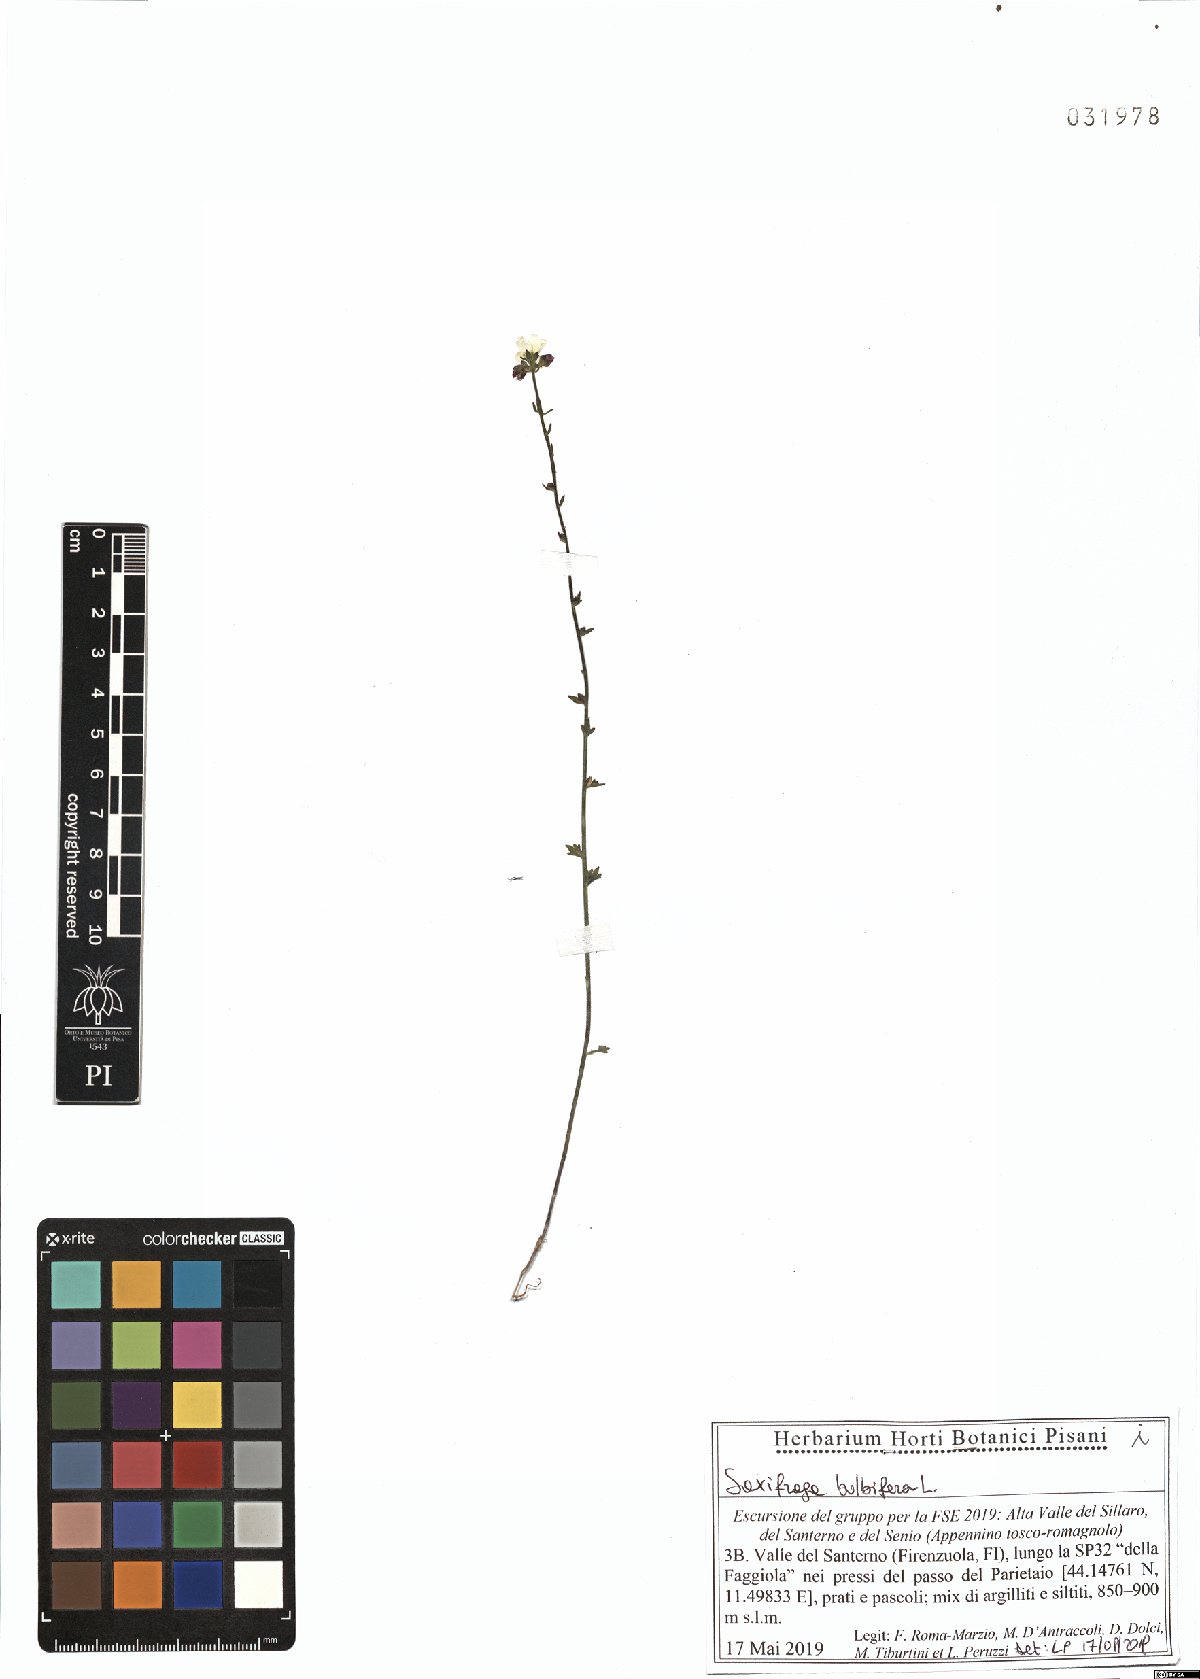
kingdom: Plantae
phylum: Tracheophyta
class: Magnoliopsida
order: Saxifragales
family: Saxifragaceae
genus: Saxifraga
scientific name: Saxifraga bulbifera
